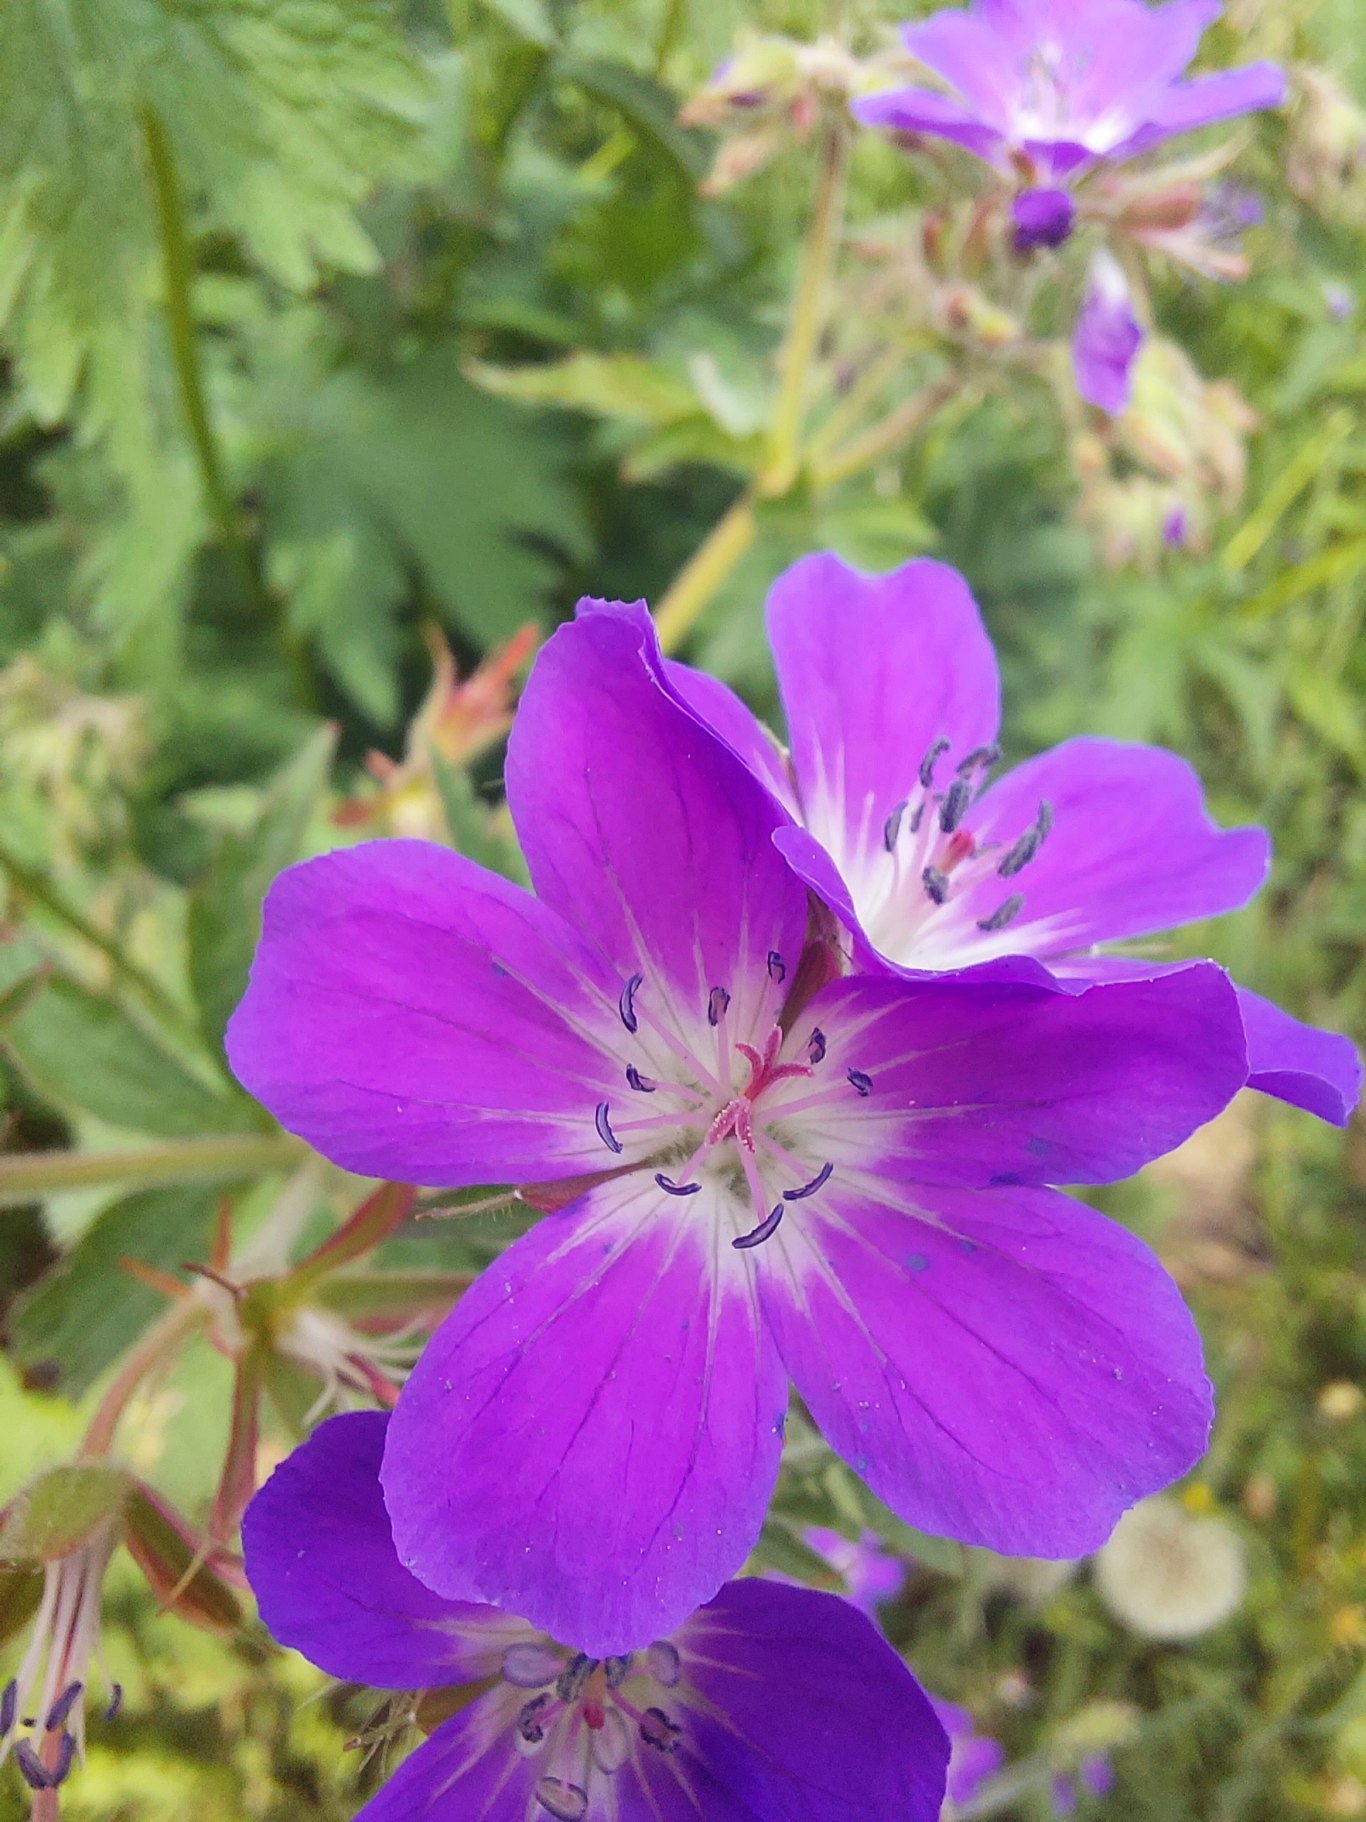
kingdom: Plantae
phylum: Tracheophyta
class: Magnoliopsida
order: Geraniales
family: Geraniaceae
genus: Geranium
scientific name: Geranium sylvaticum
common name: Skov-storkenæb
